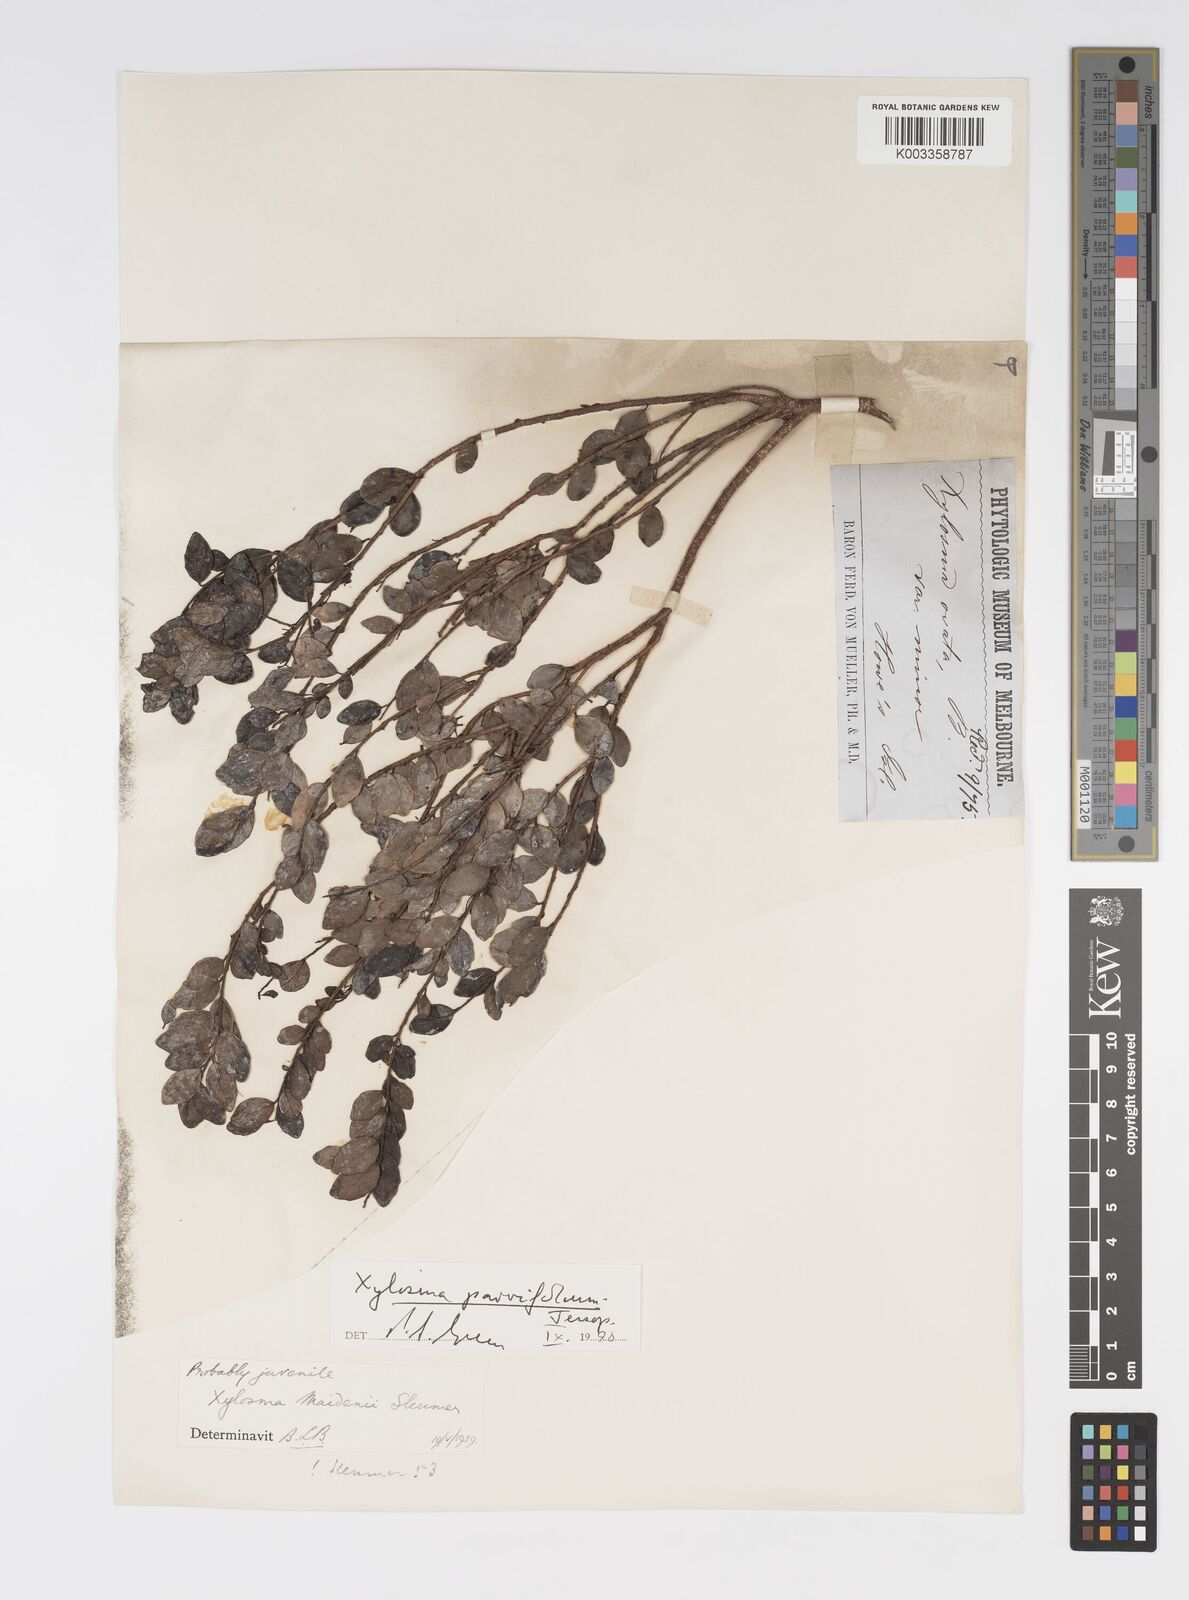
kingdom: Plantae
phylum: Tracheophyta
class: Magnoliopsida
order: Malpighiales
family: Salicaceae
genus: Xylosma
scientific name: Xylosma parvifolia
